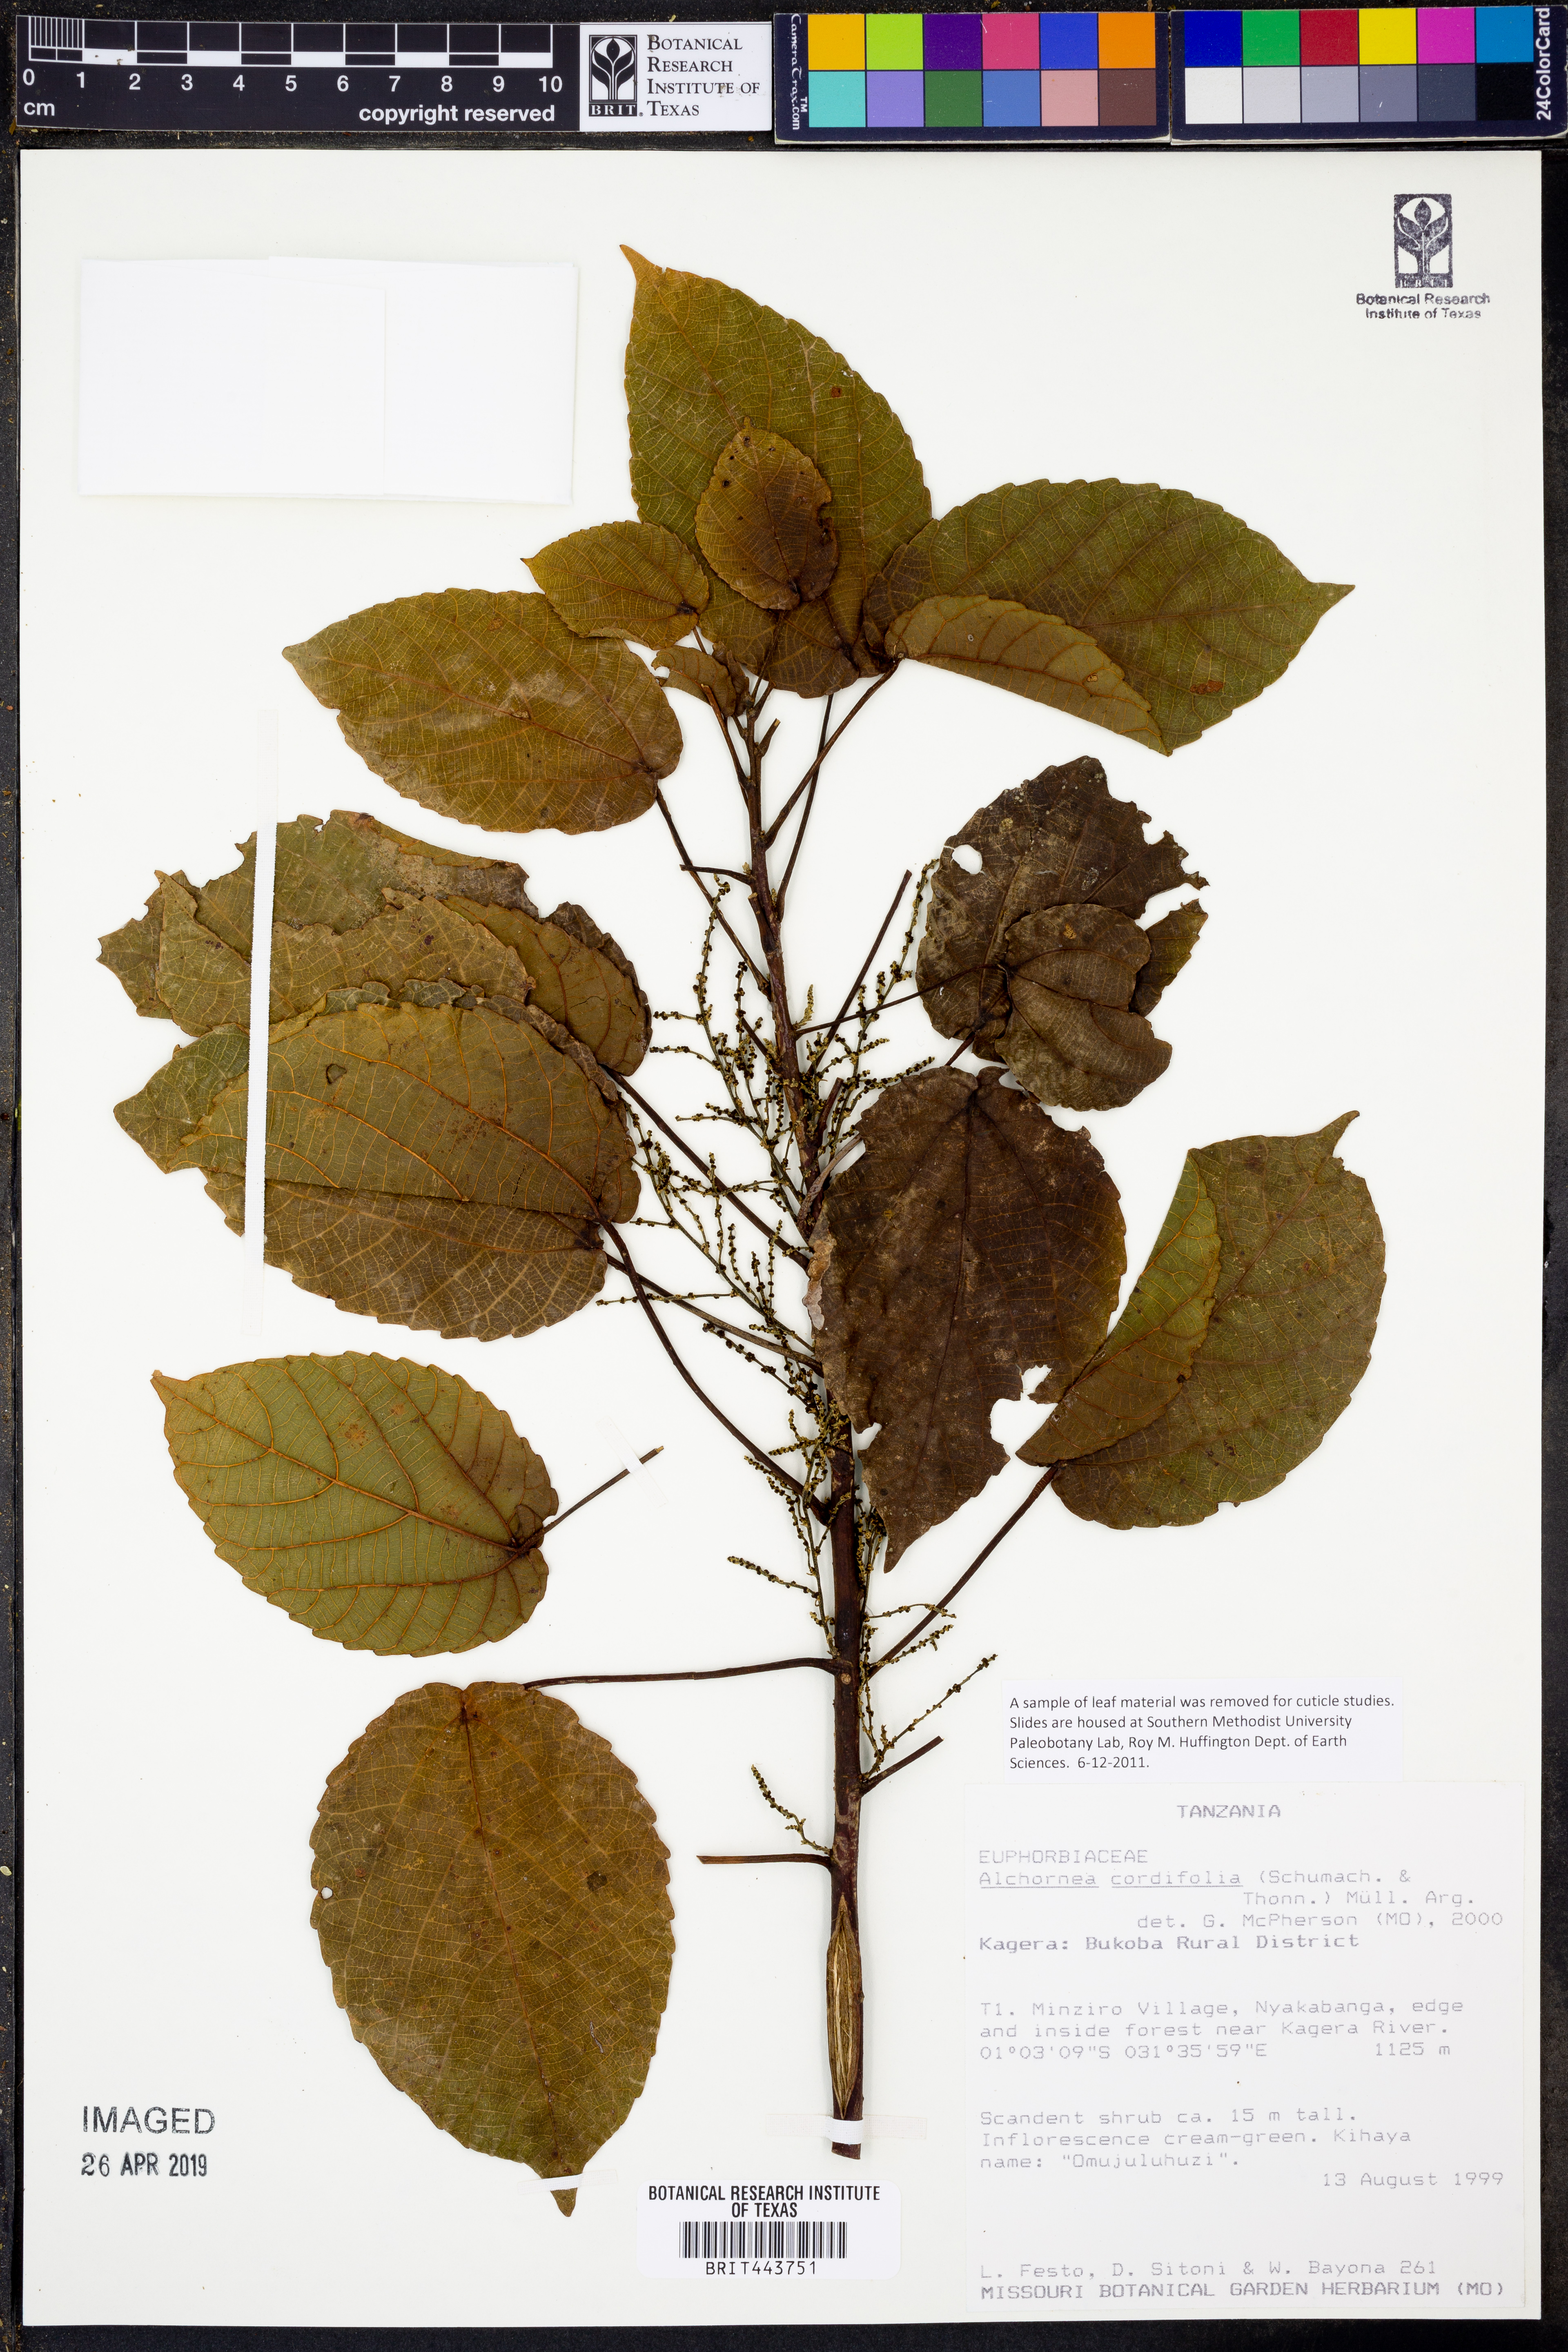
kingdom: Plantae
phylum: Tracheophyta
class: Magnoliopsida
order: Malpighiales
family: Euphorbiaceae
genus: Alchornea
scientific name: Alchornea cordifolia
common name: Christmasbush
